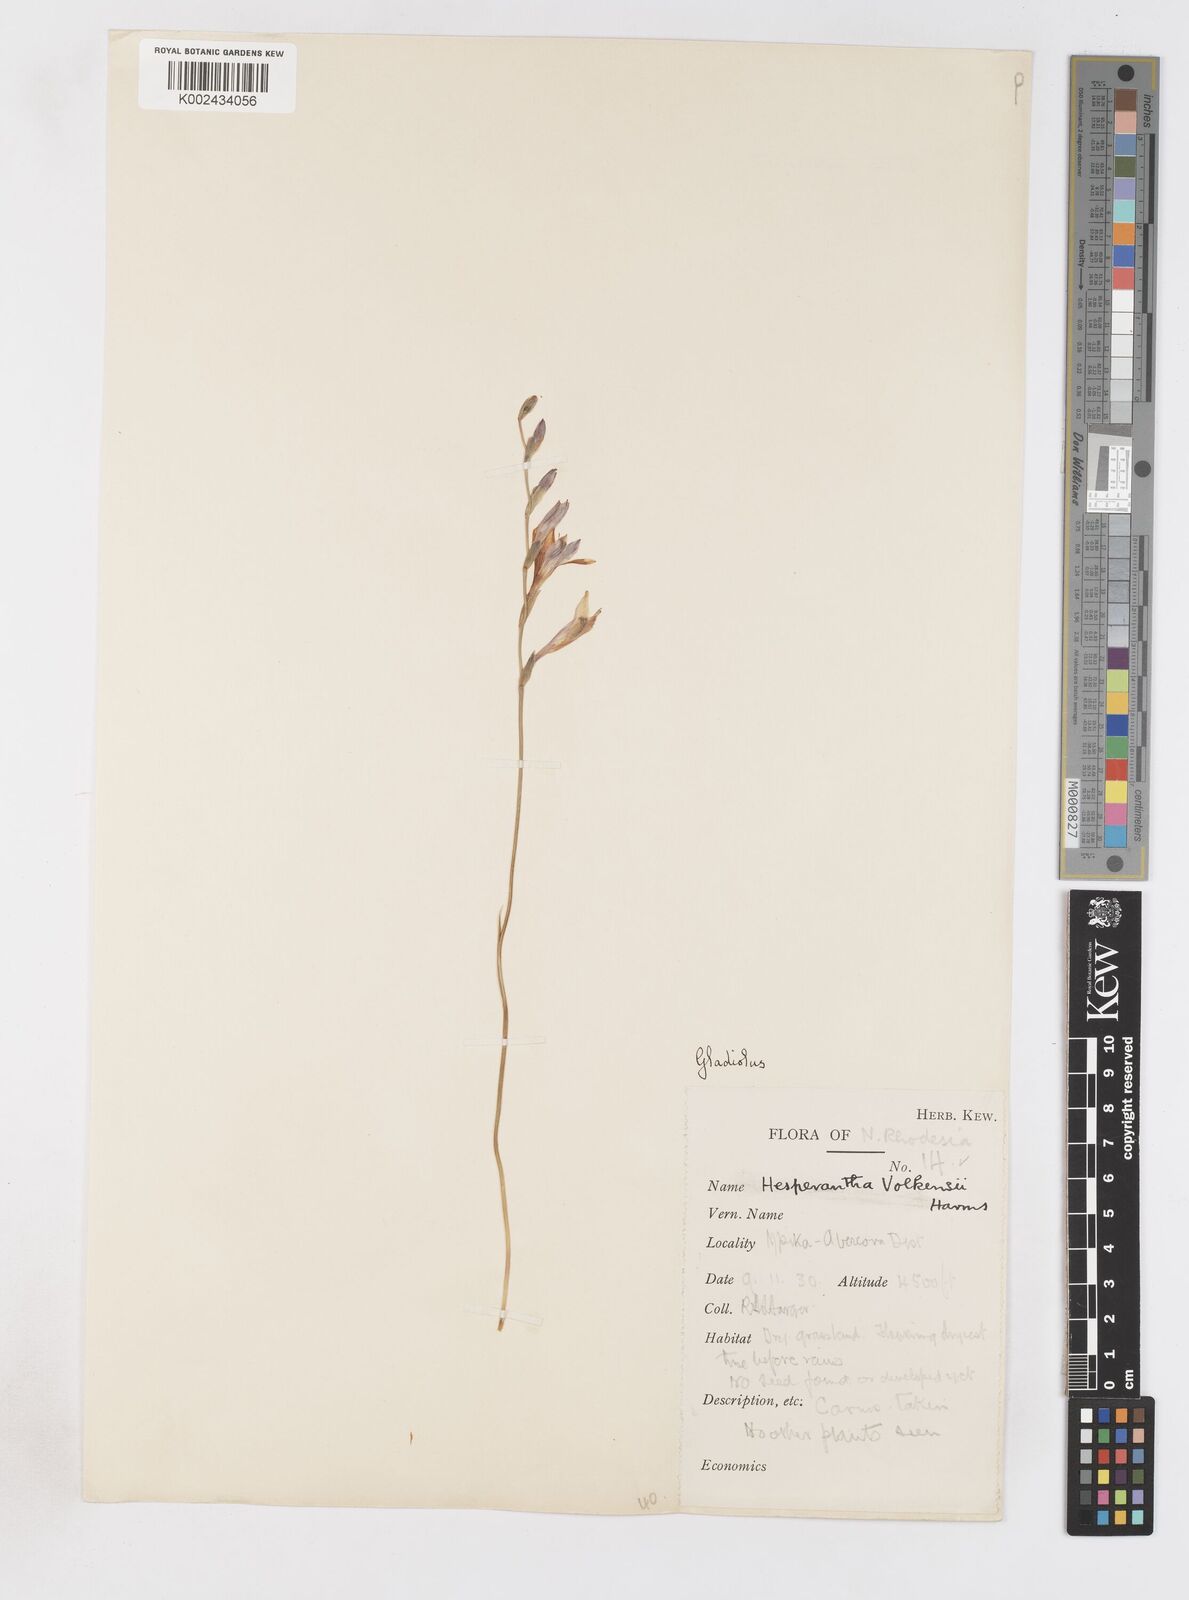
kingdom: Plantae
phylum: Tracheophyta
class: Liliopsida
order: Asparagales
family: Iridaceae
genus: Gladiolus
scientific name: Gladiolus atropurpureus
